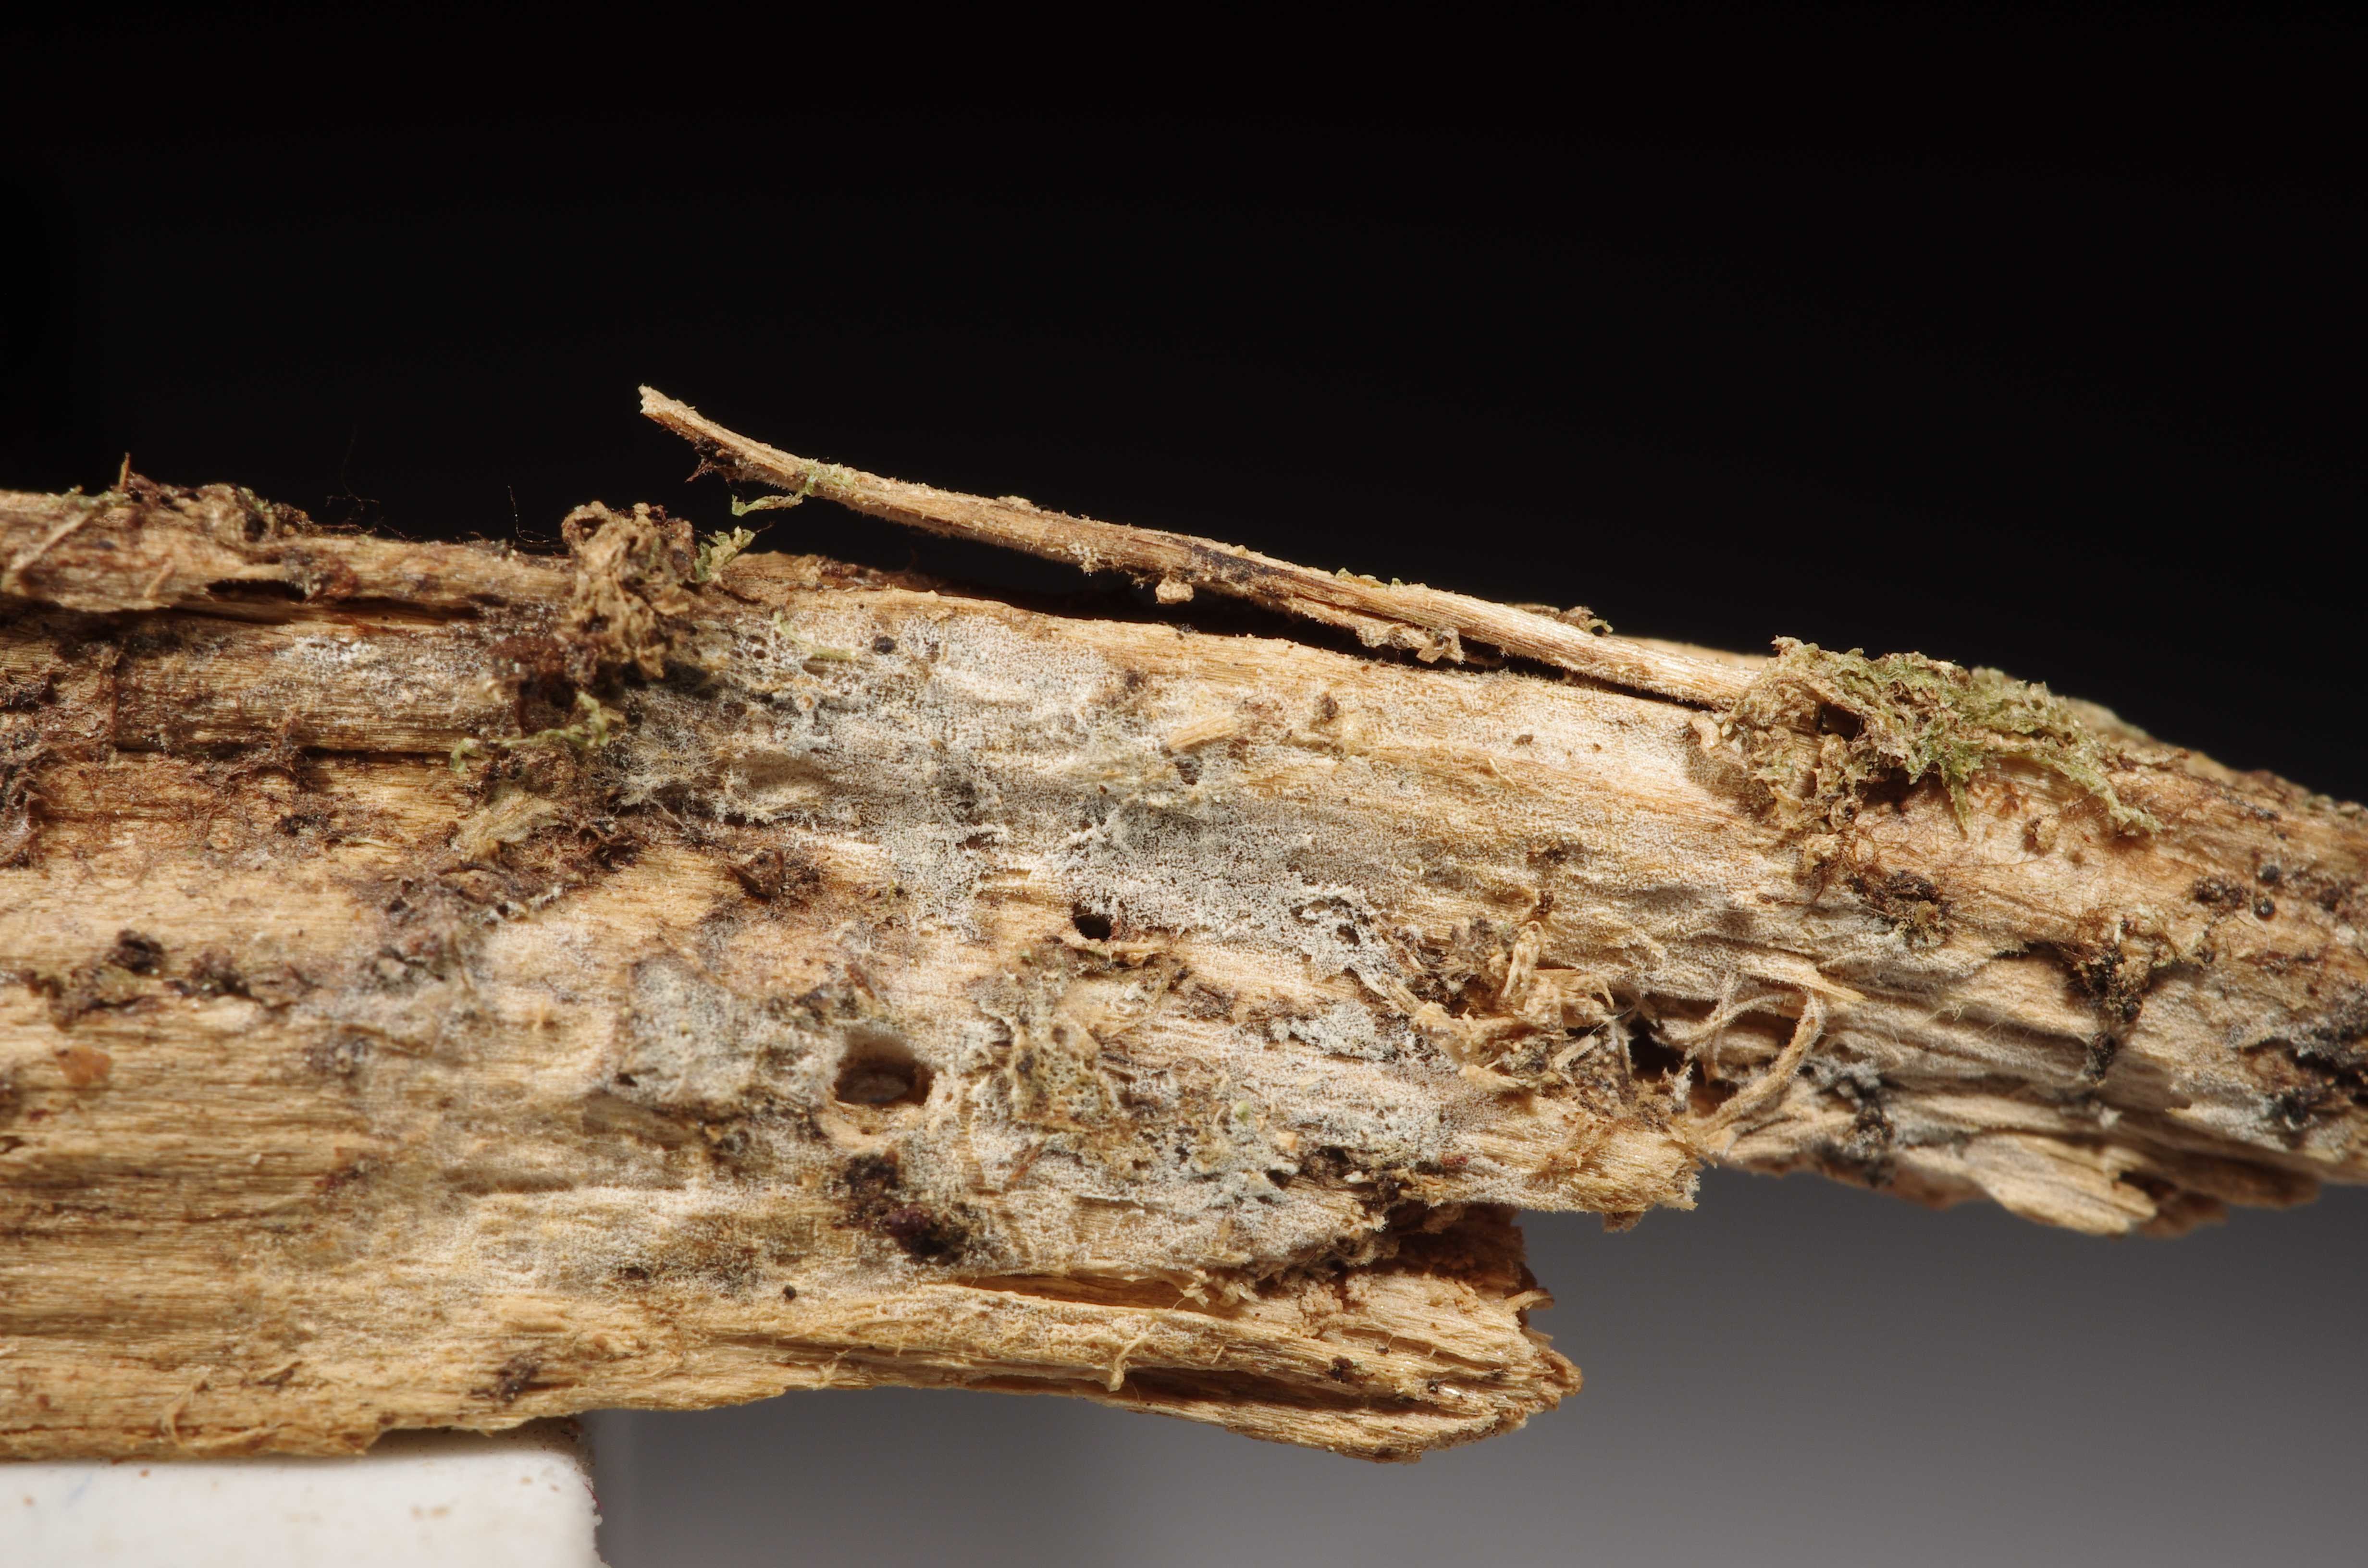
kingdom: Fungi
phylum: Basidiomycota
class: Agaricomycetes
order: Hymenochaetales
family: Hymenochaetaceae
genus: Tubulicrinis
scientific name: Tubulicrinis inornatus
